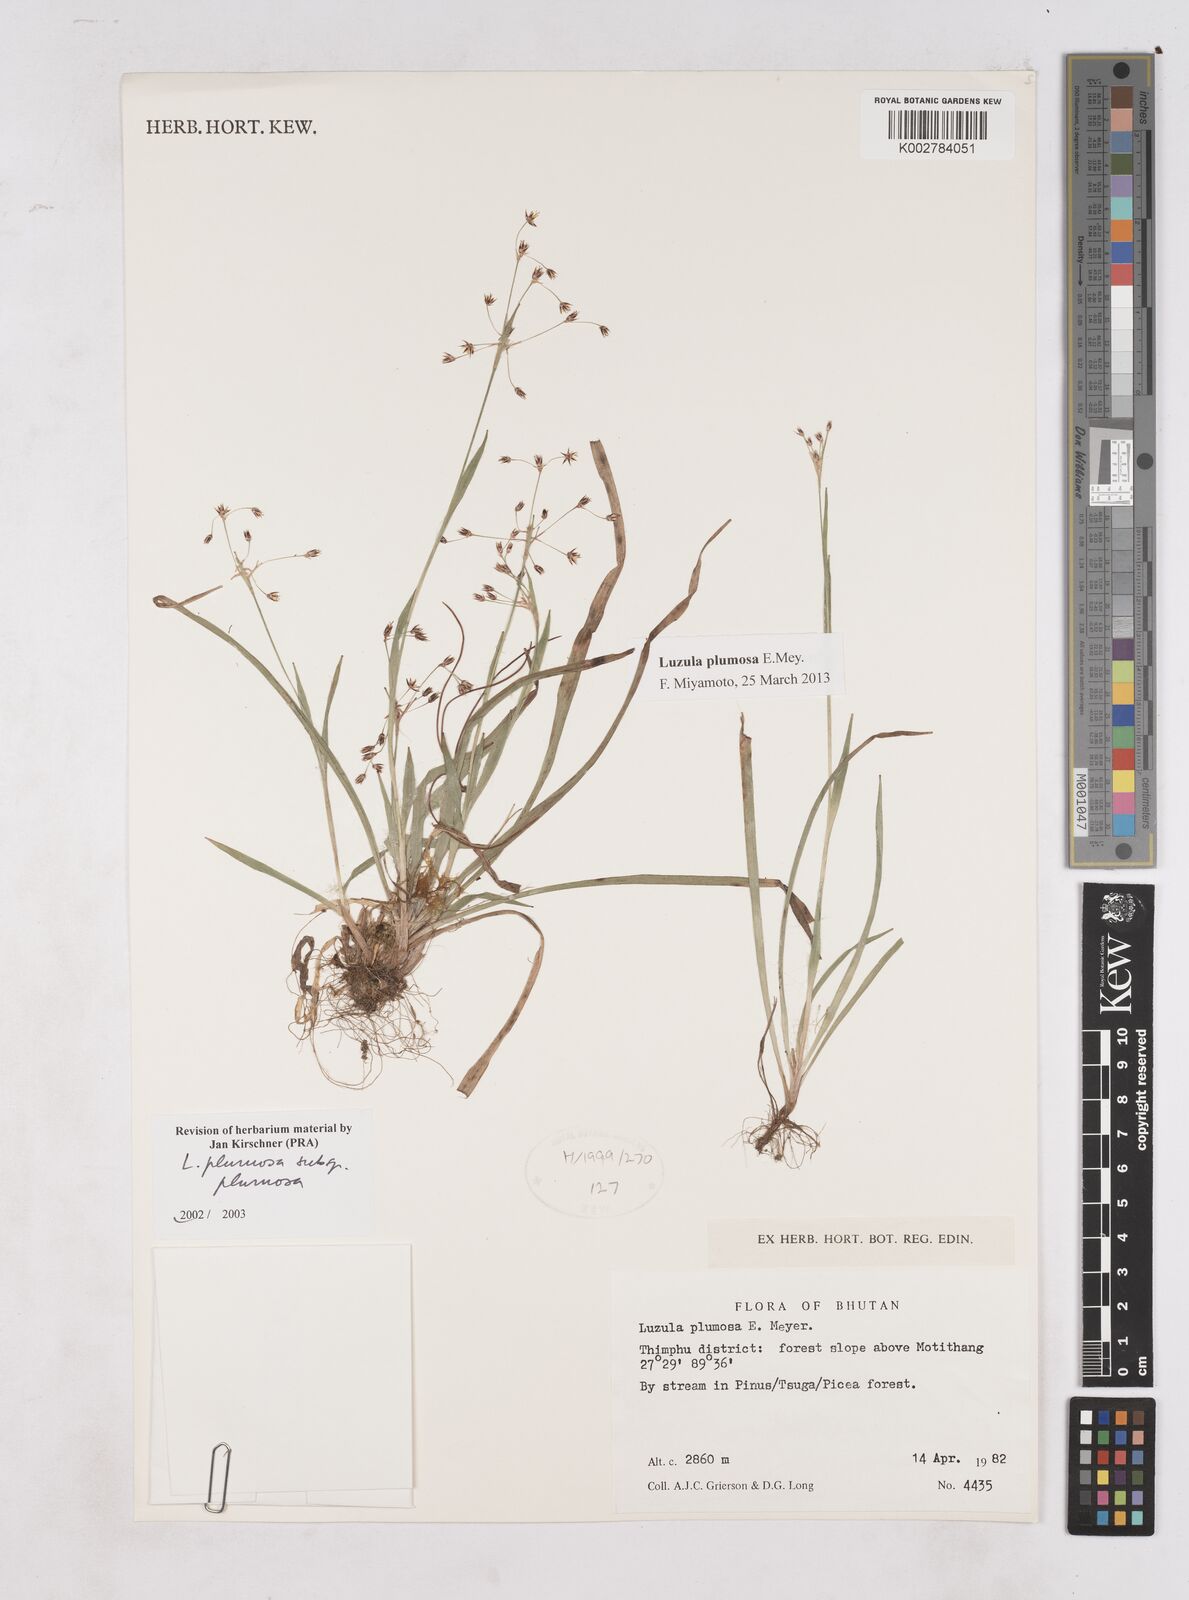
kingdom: Plantae
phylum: Tracheophyta
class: Liliopsida
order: Poales
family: Juncaceae
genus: Luzula
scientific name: Luzula plumosa
